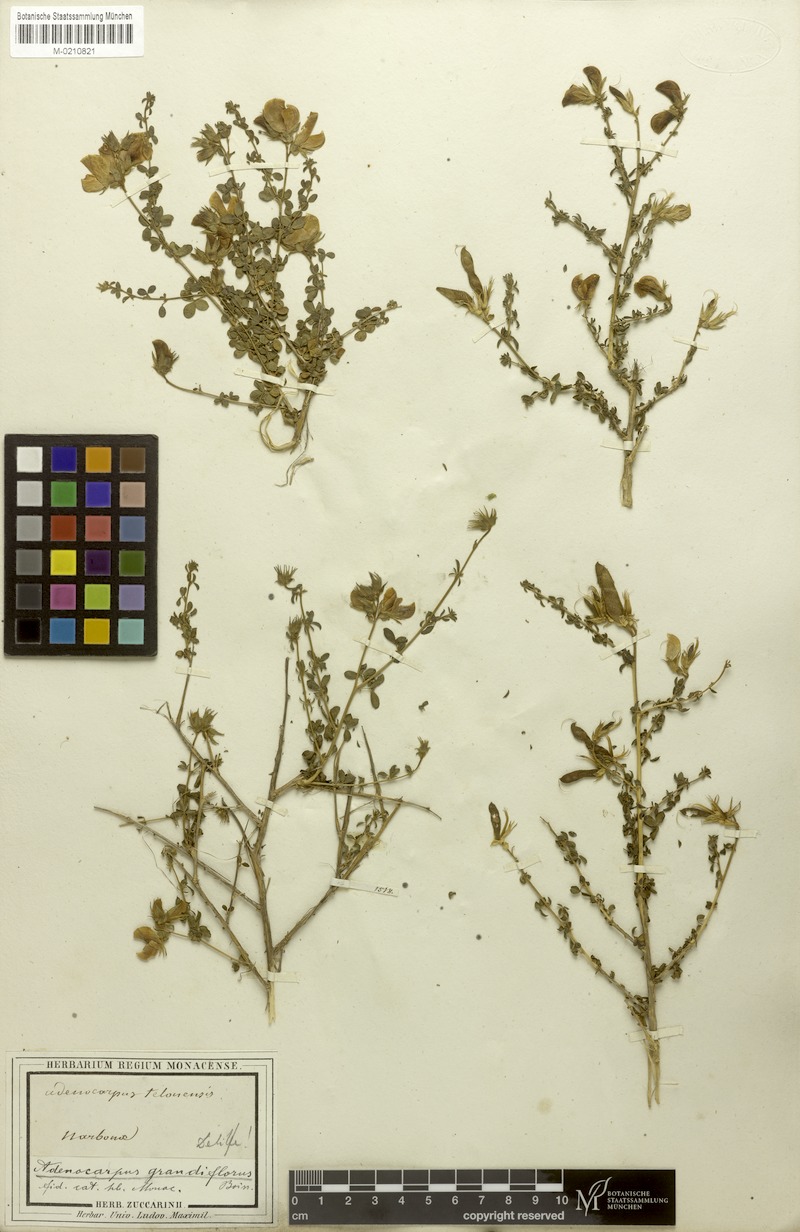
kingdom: Plantae
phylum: Tracheophyta
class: Magnoliopsida
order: Fabales
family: Fabaceae
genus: Adenocarpus
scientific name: Adenocarpus telonensis
